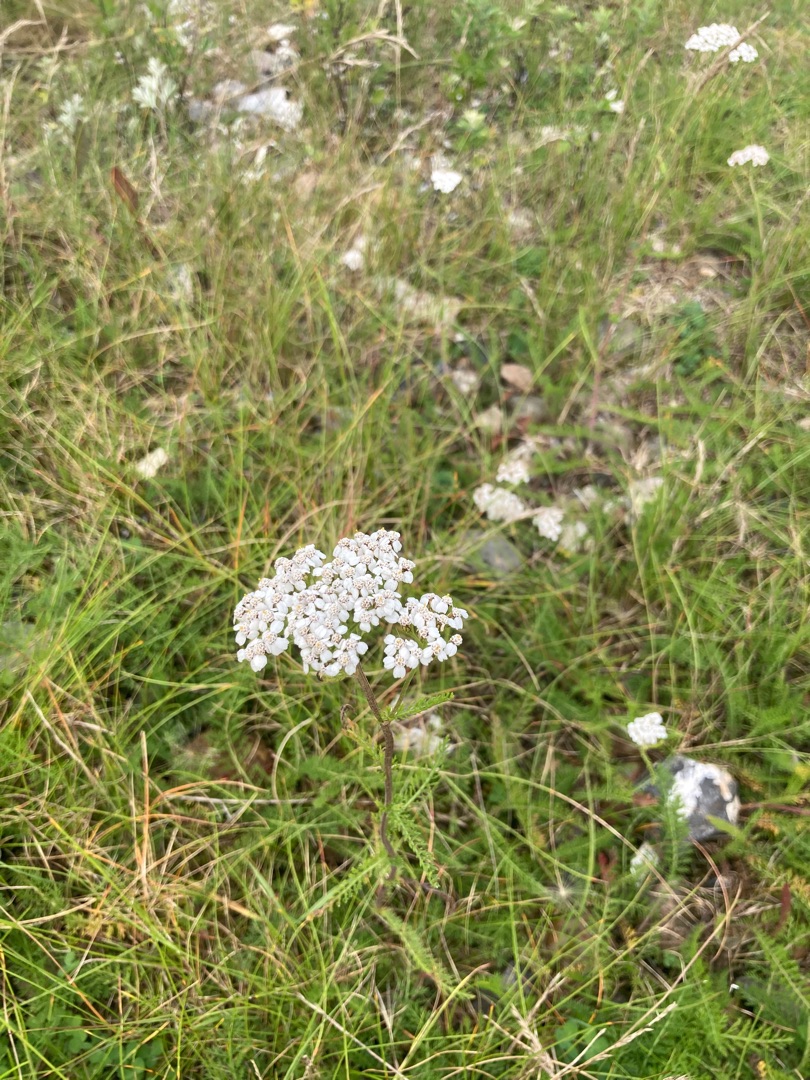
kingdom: Plantae
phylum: Tracheophyta
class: Magnoliopsida
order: Asterales
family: Asteraceae
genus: Achillea
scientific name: Achillea millefolium
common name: Almindelig røllike
